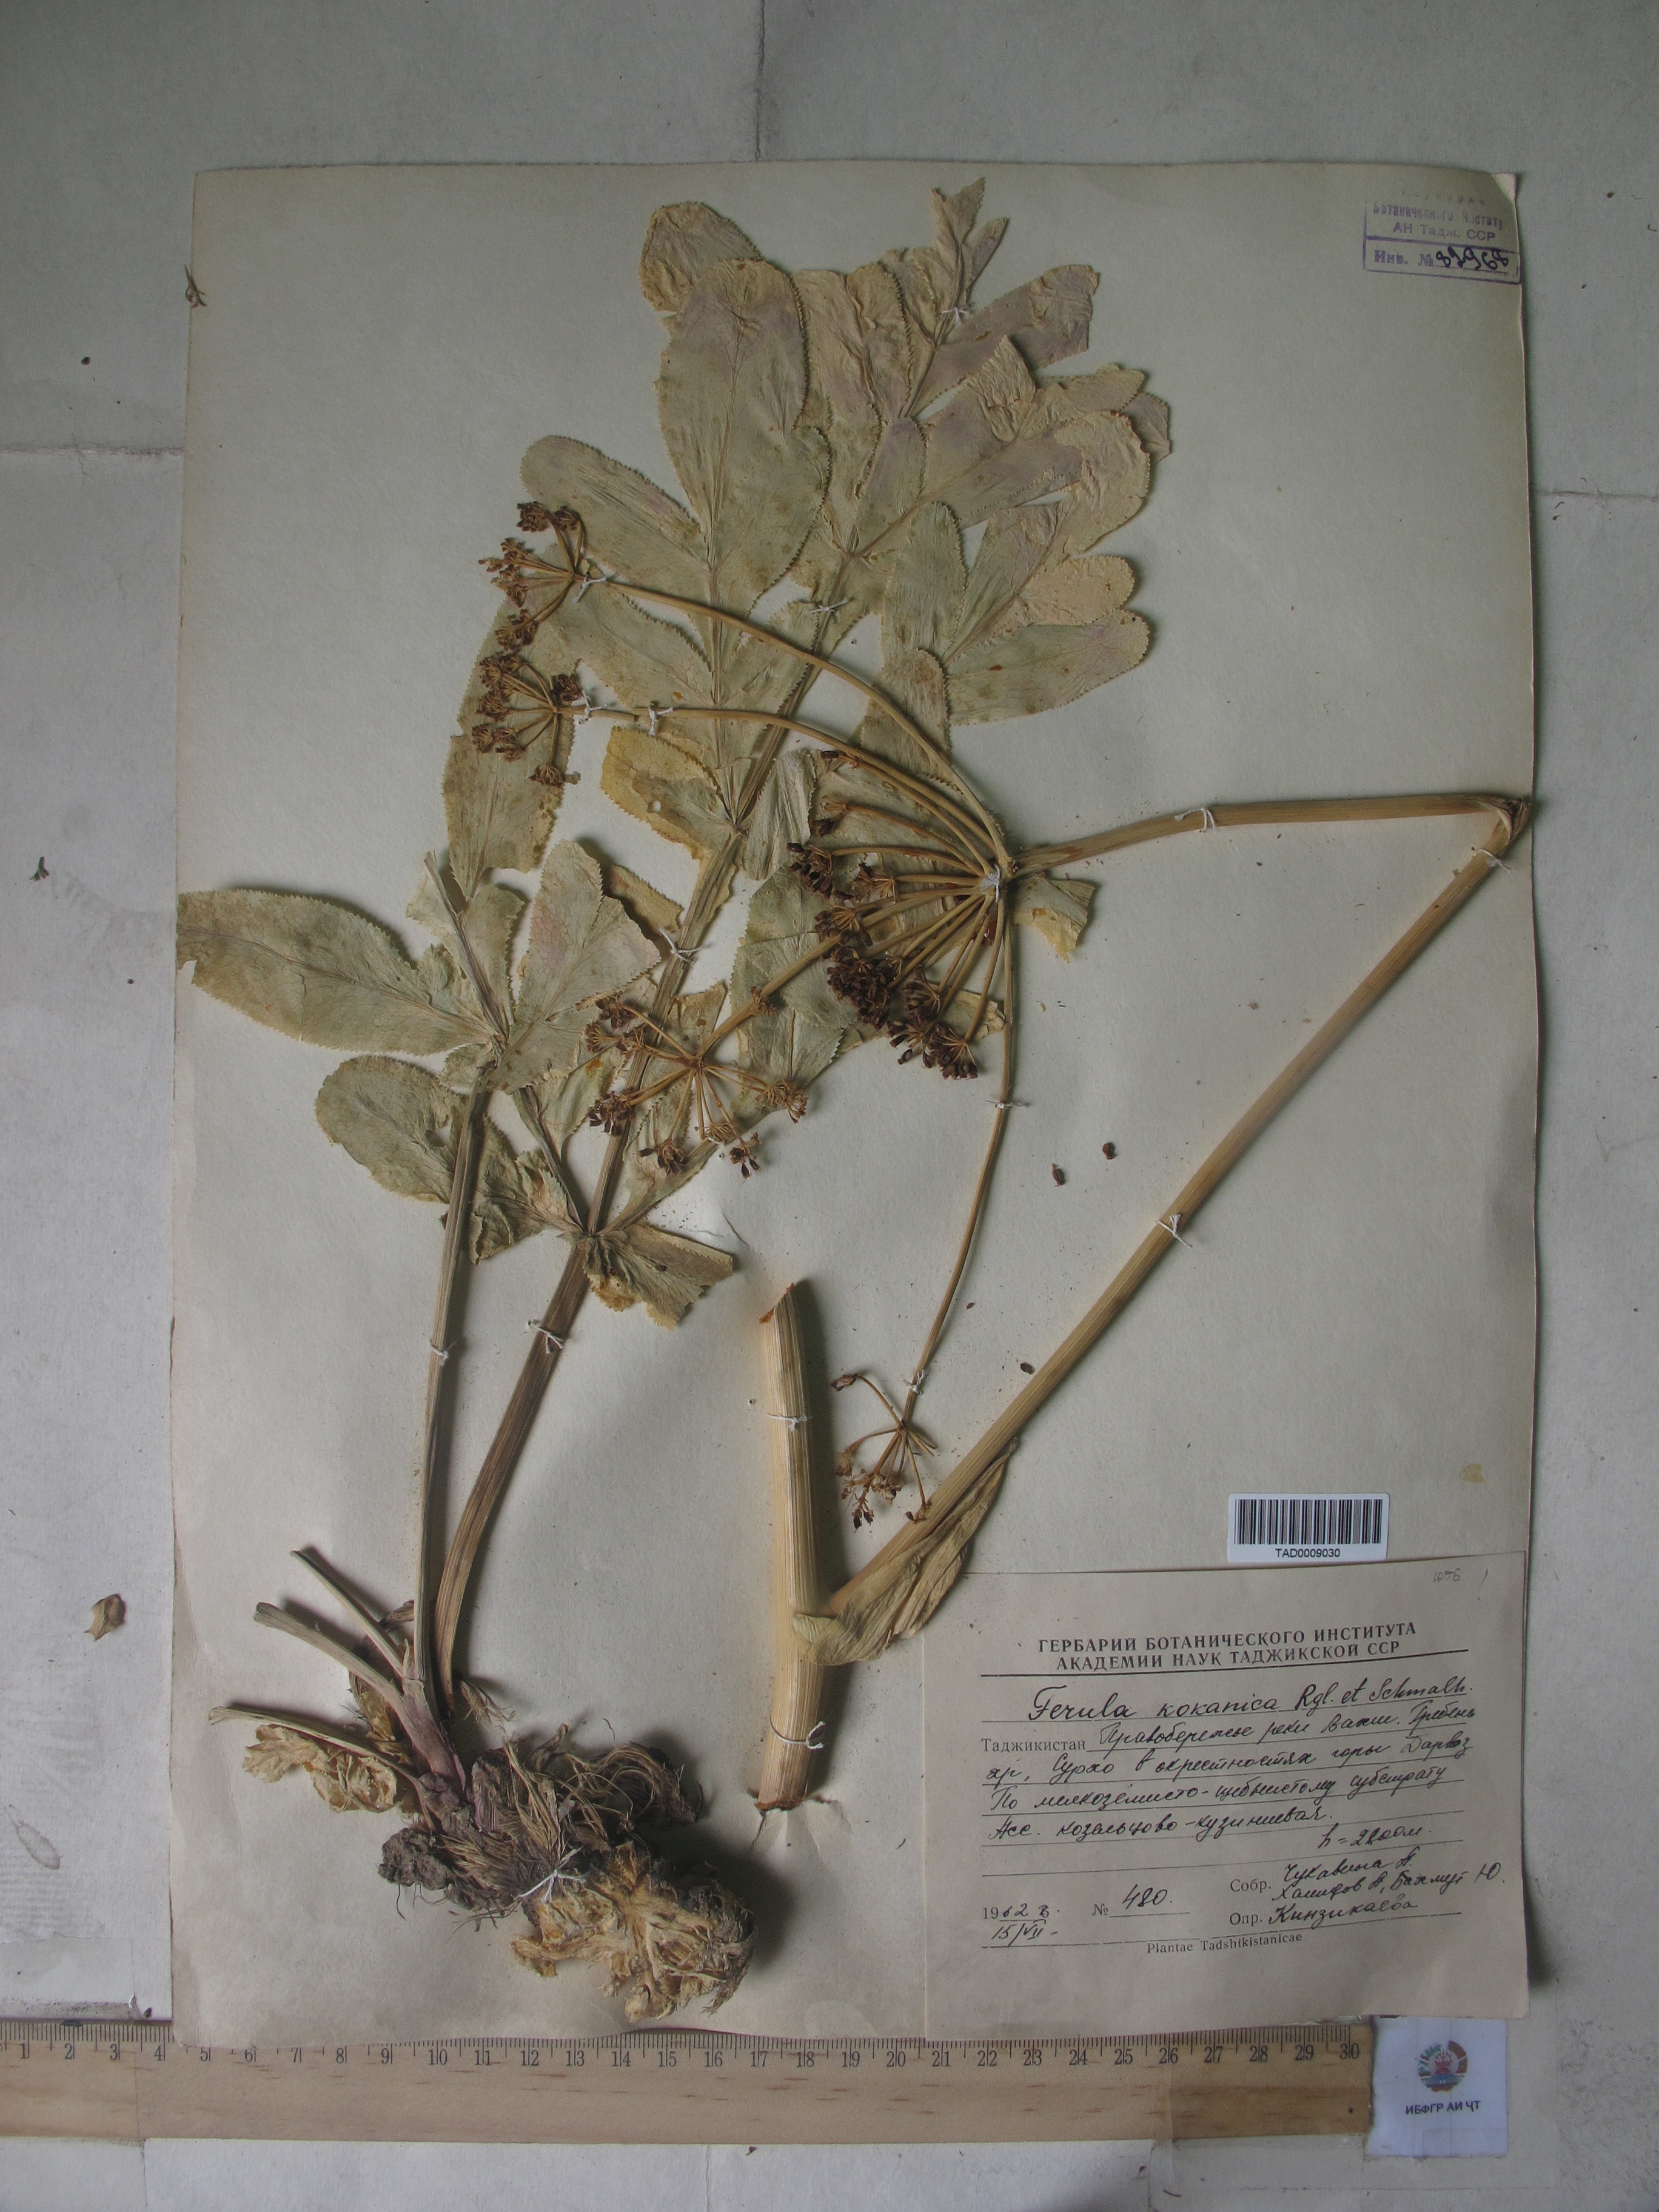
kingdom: Plantae
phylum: Tracheophyta
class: Magnoliopsida
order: Apiales
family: Apiaceae
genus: Ferula
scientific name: Ferula kokanica
